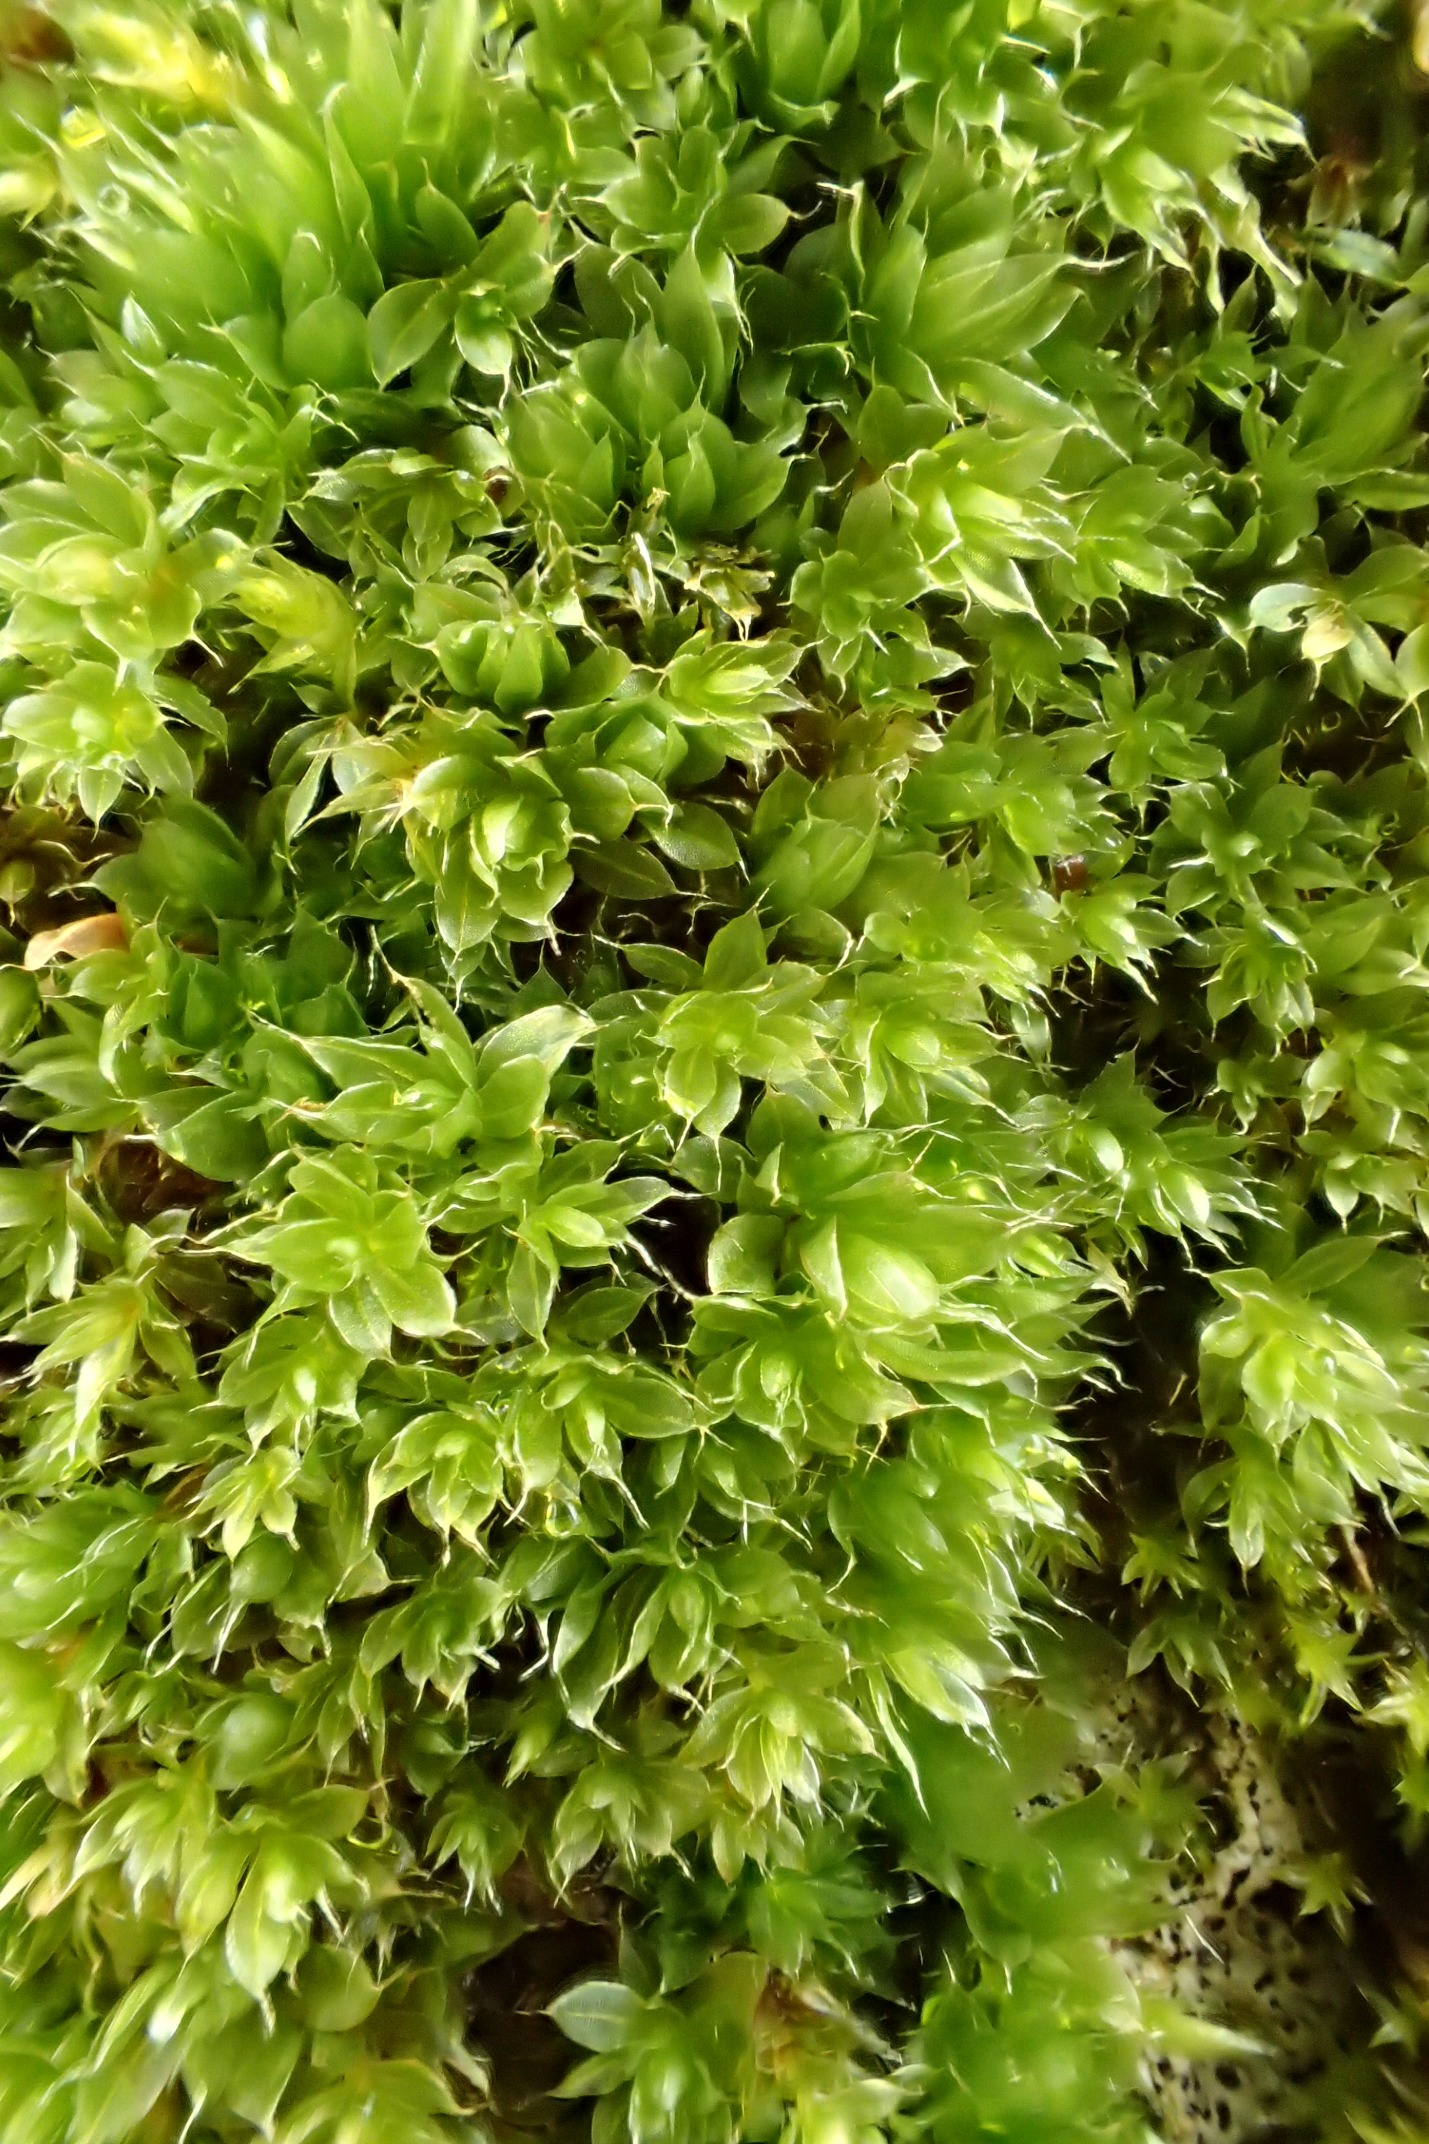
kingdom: Plantae
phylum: Bryophyta
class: Bryopsida
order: Bryales
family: Bryaceae
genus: Rosulabryum
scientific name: Rosulabryum capillare
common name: Hårspidset bryum
